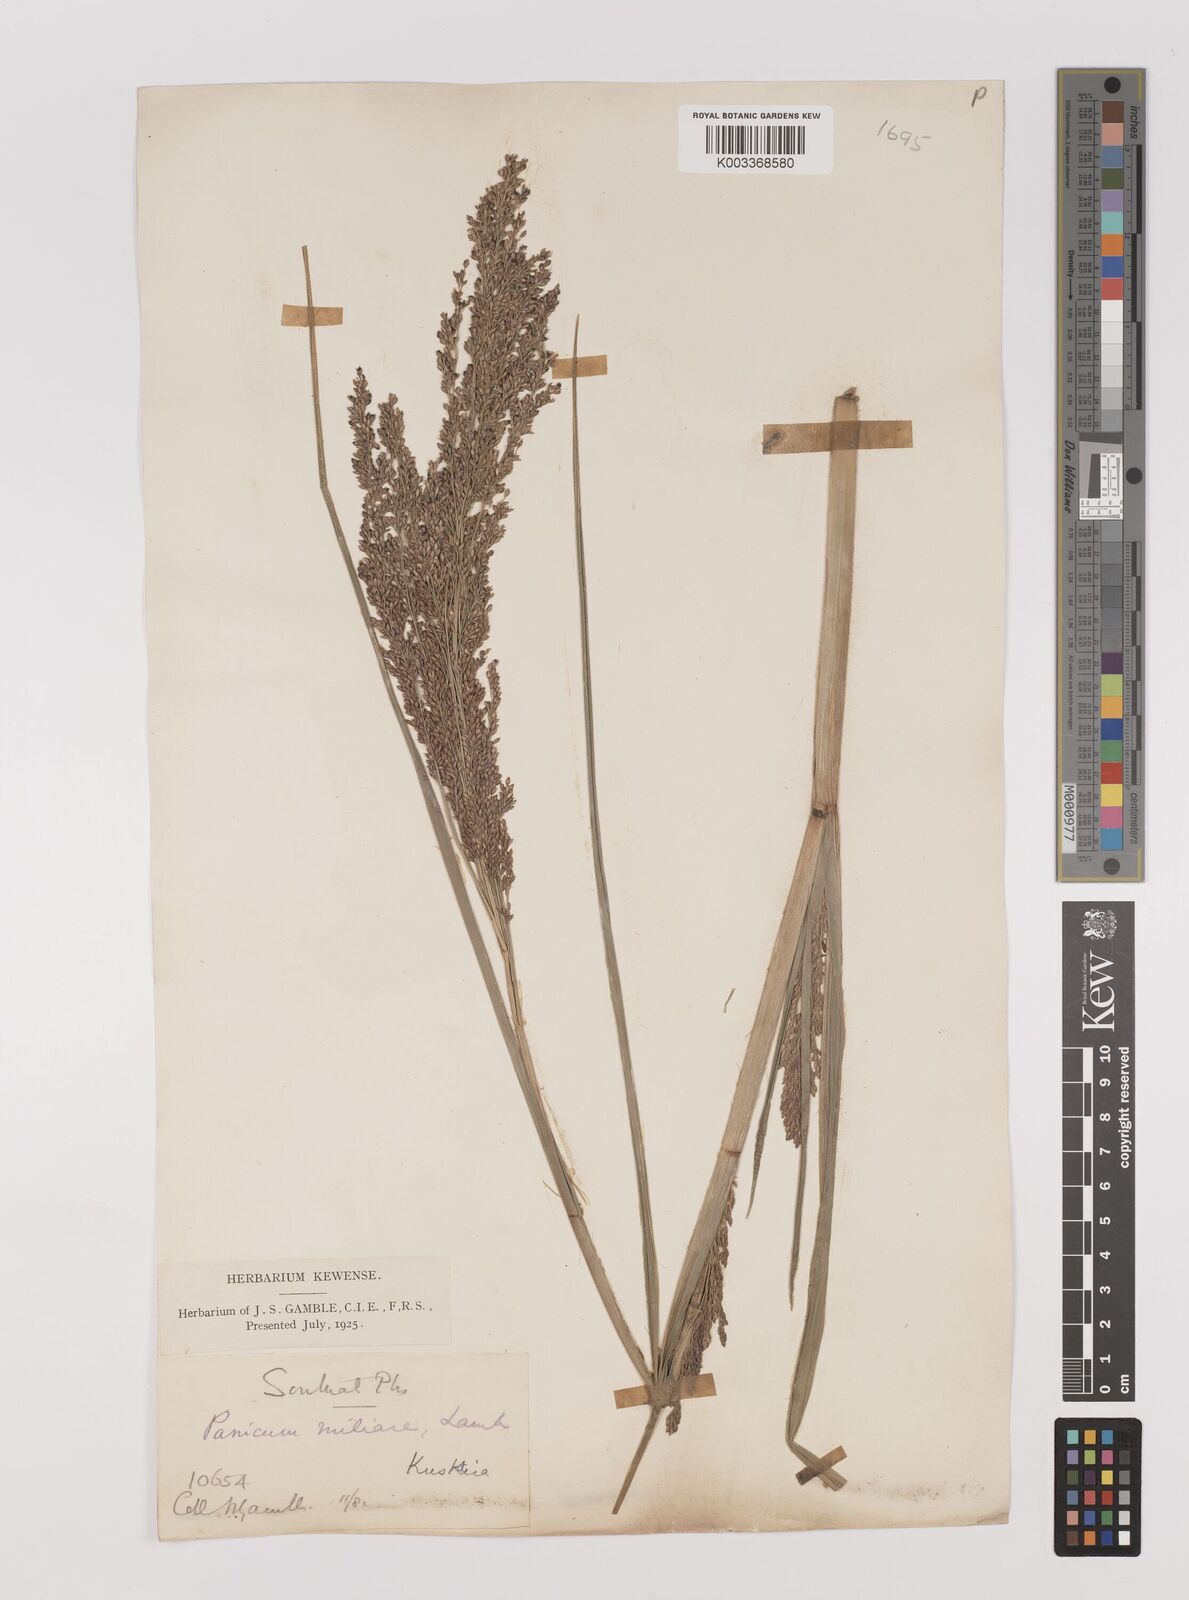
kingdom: Plantae
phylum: Tracheophyta
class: Liliopsida
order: Poales
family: Poaceae
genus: Panicum
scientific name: Panicum sumatrense
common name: Little millet
